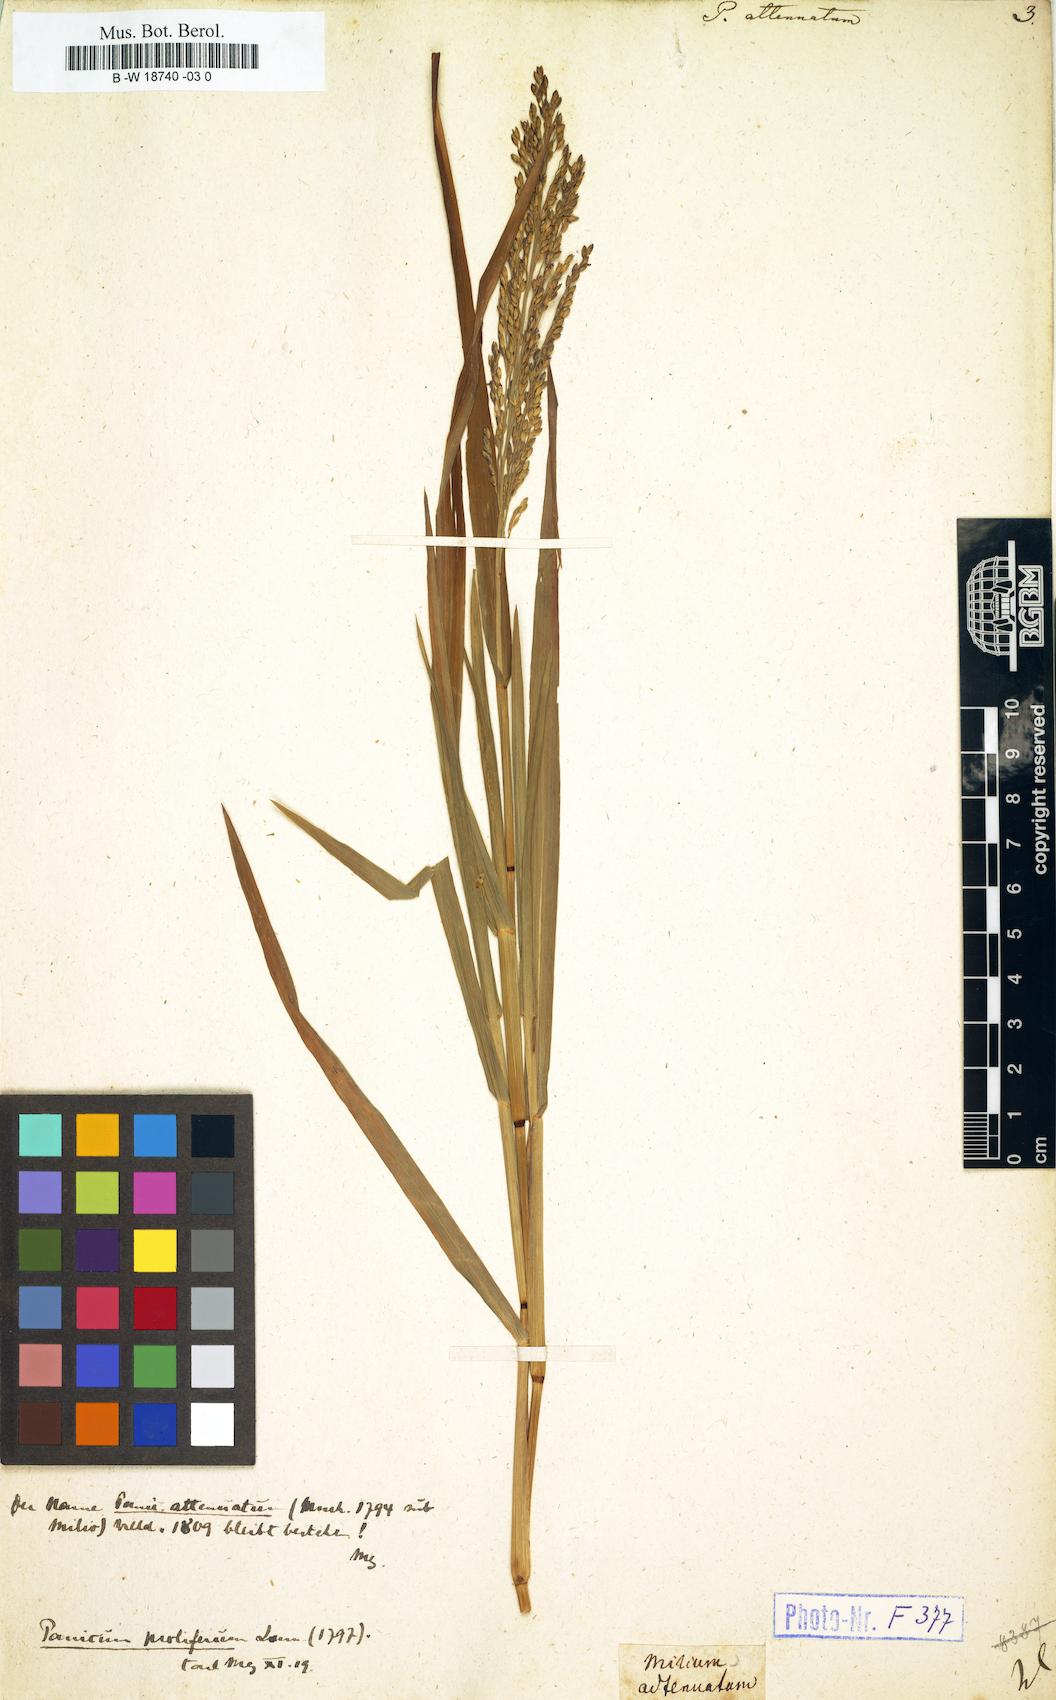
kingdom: Plantae
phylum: Tracheophyta
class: Liliopsida
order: Poales
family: Poaceae
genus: Panicum
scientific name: Panicum sumatrense
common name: Little millet
